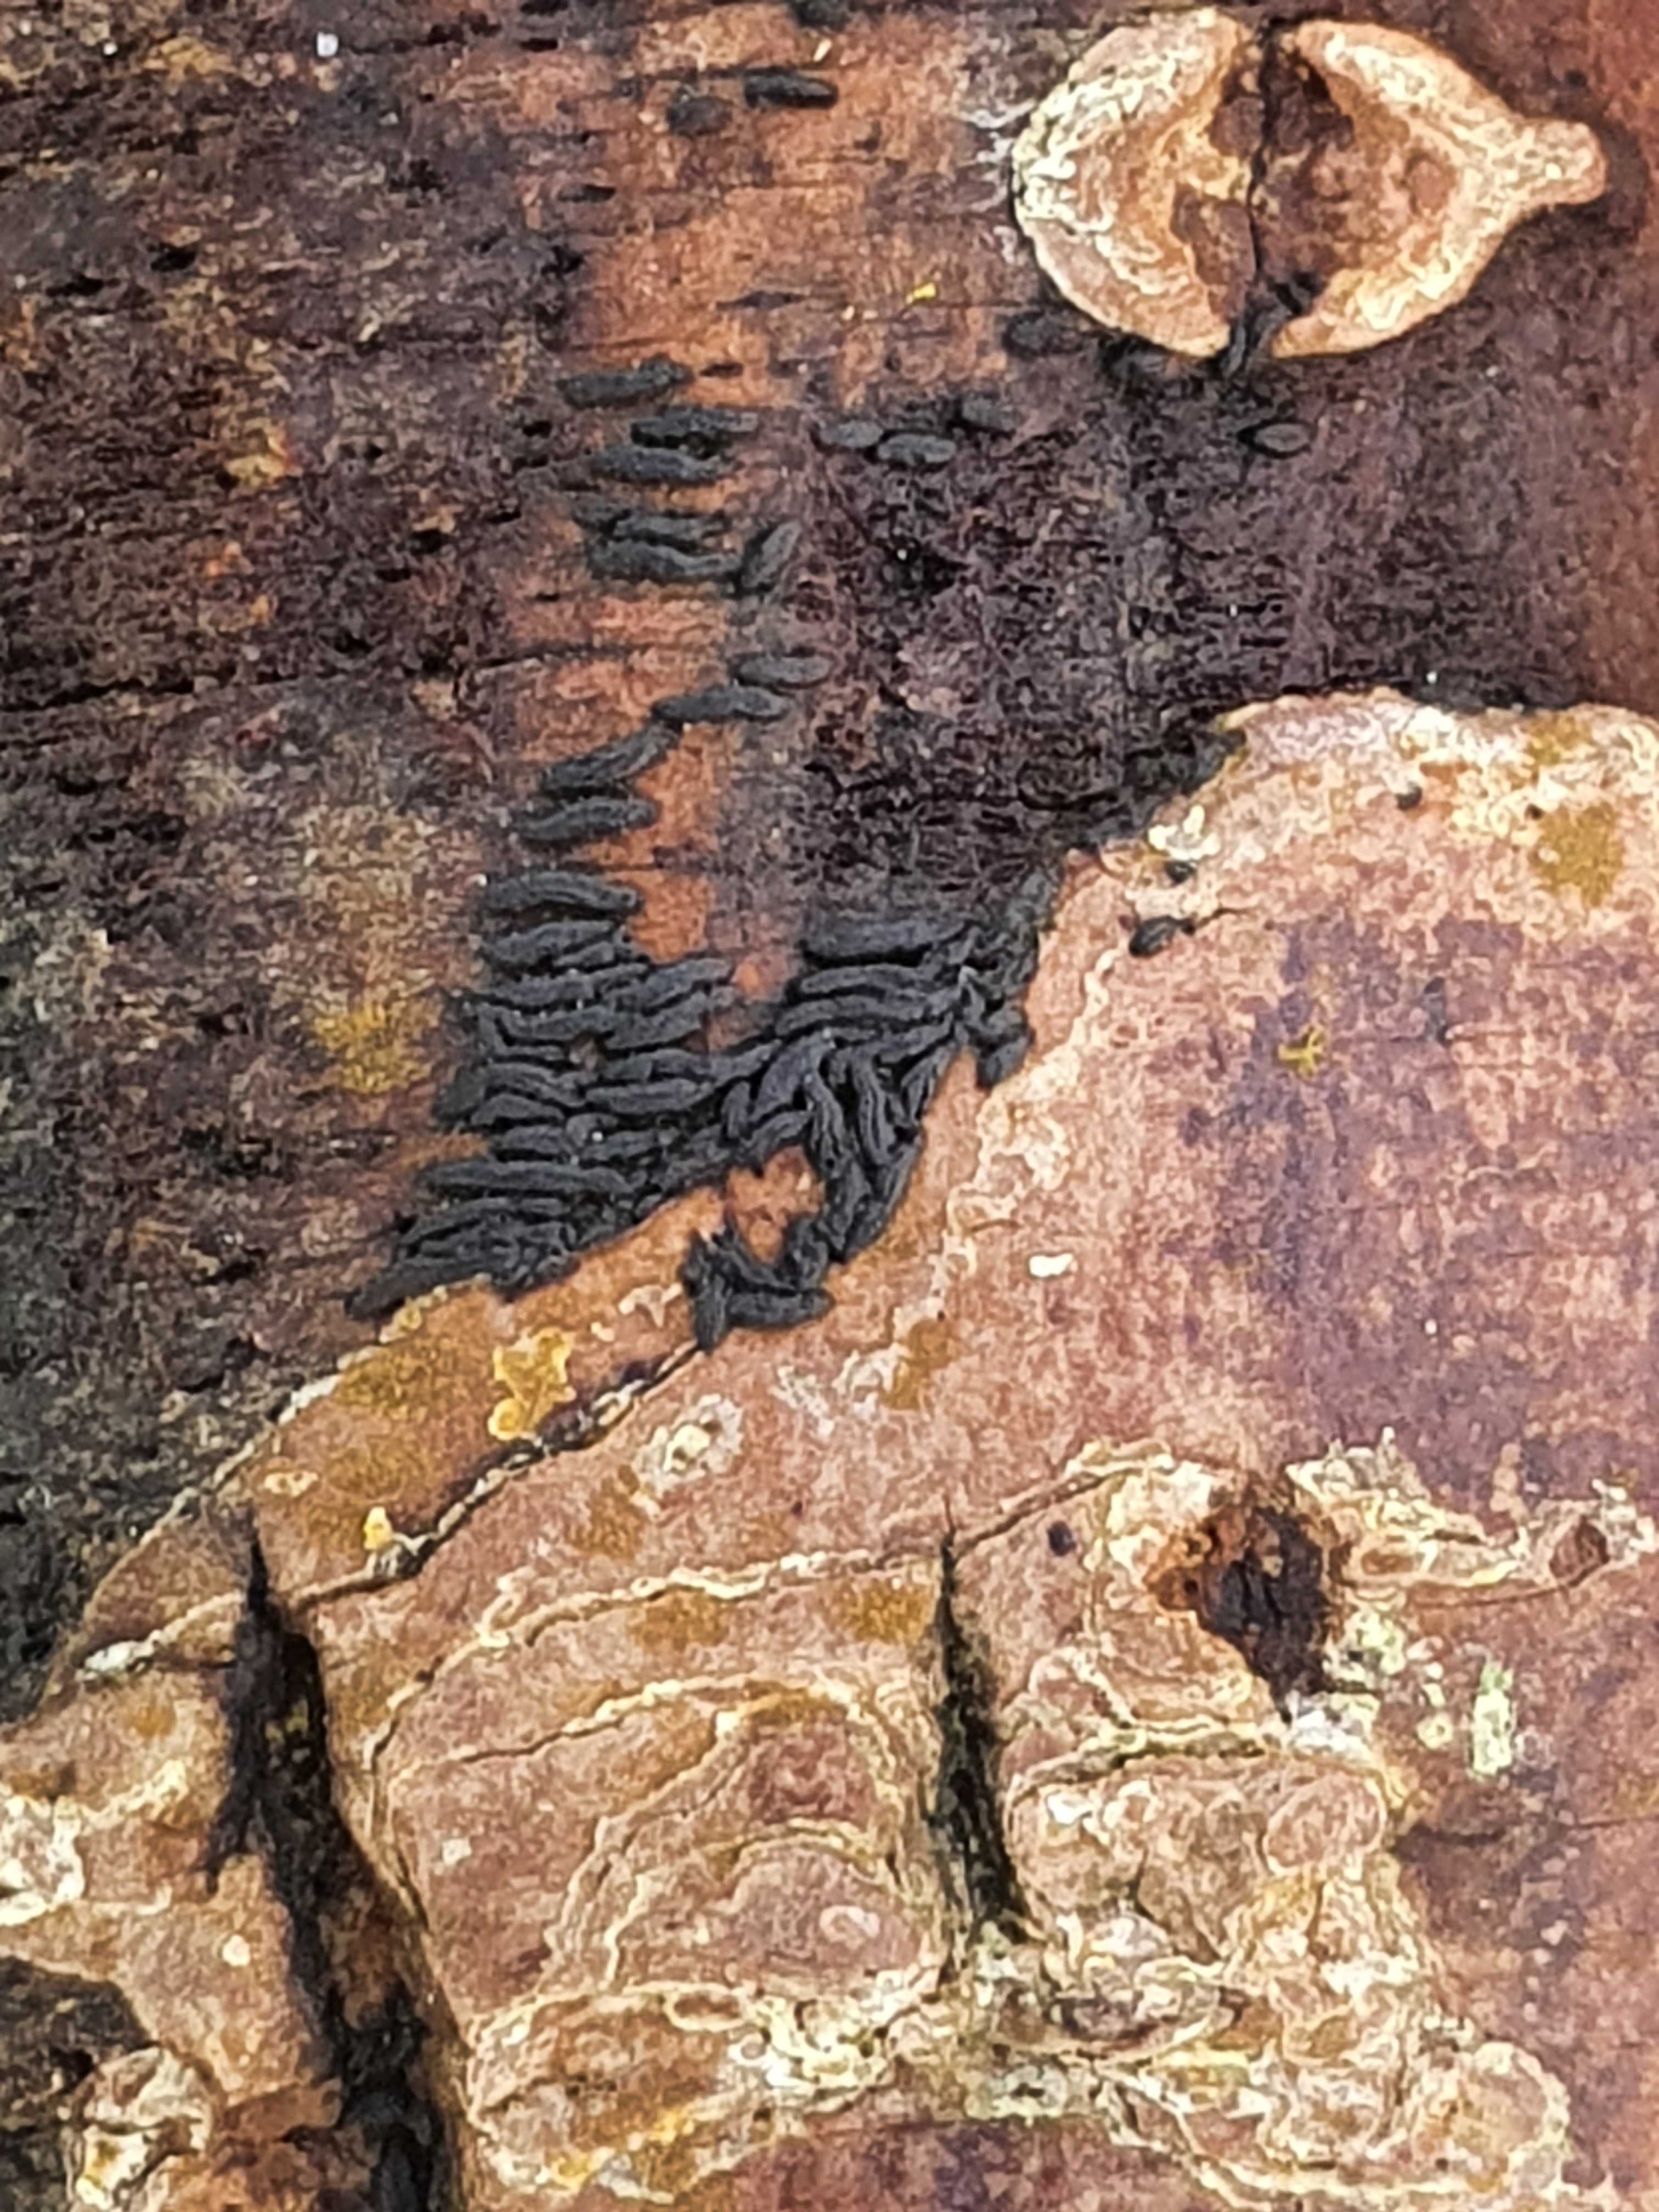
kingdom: Fungi
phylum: Ascomycota
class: Dothideomycetes
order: Hysteriales
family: Hysteriaceae
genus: Hysterium
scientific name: Hysterium acuminatum
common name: almindelig kulmund
